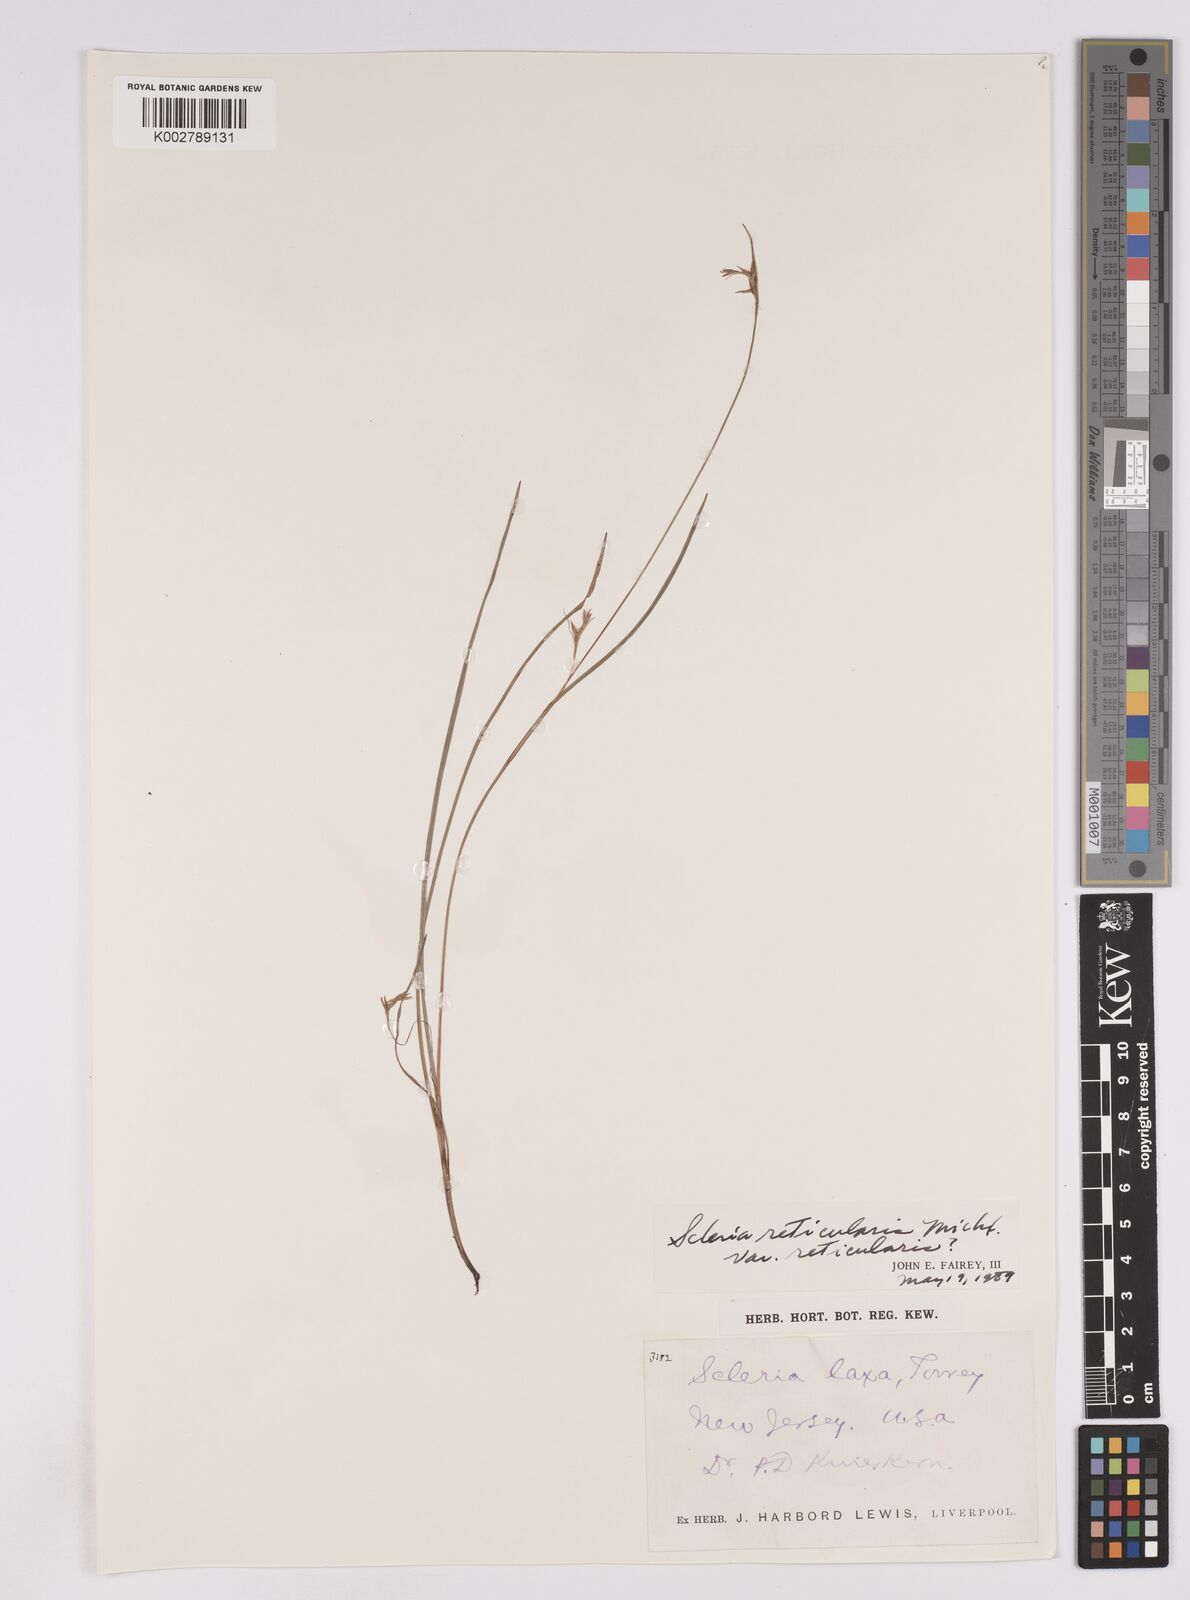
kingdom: Plantae
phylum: Tracheophyta
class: Liliopsida
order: Poales
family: Cyperaceae
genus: Scleria
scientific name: Scleria
